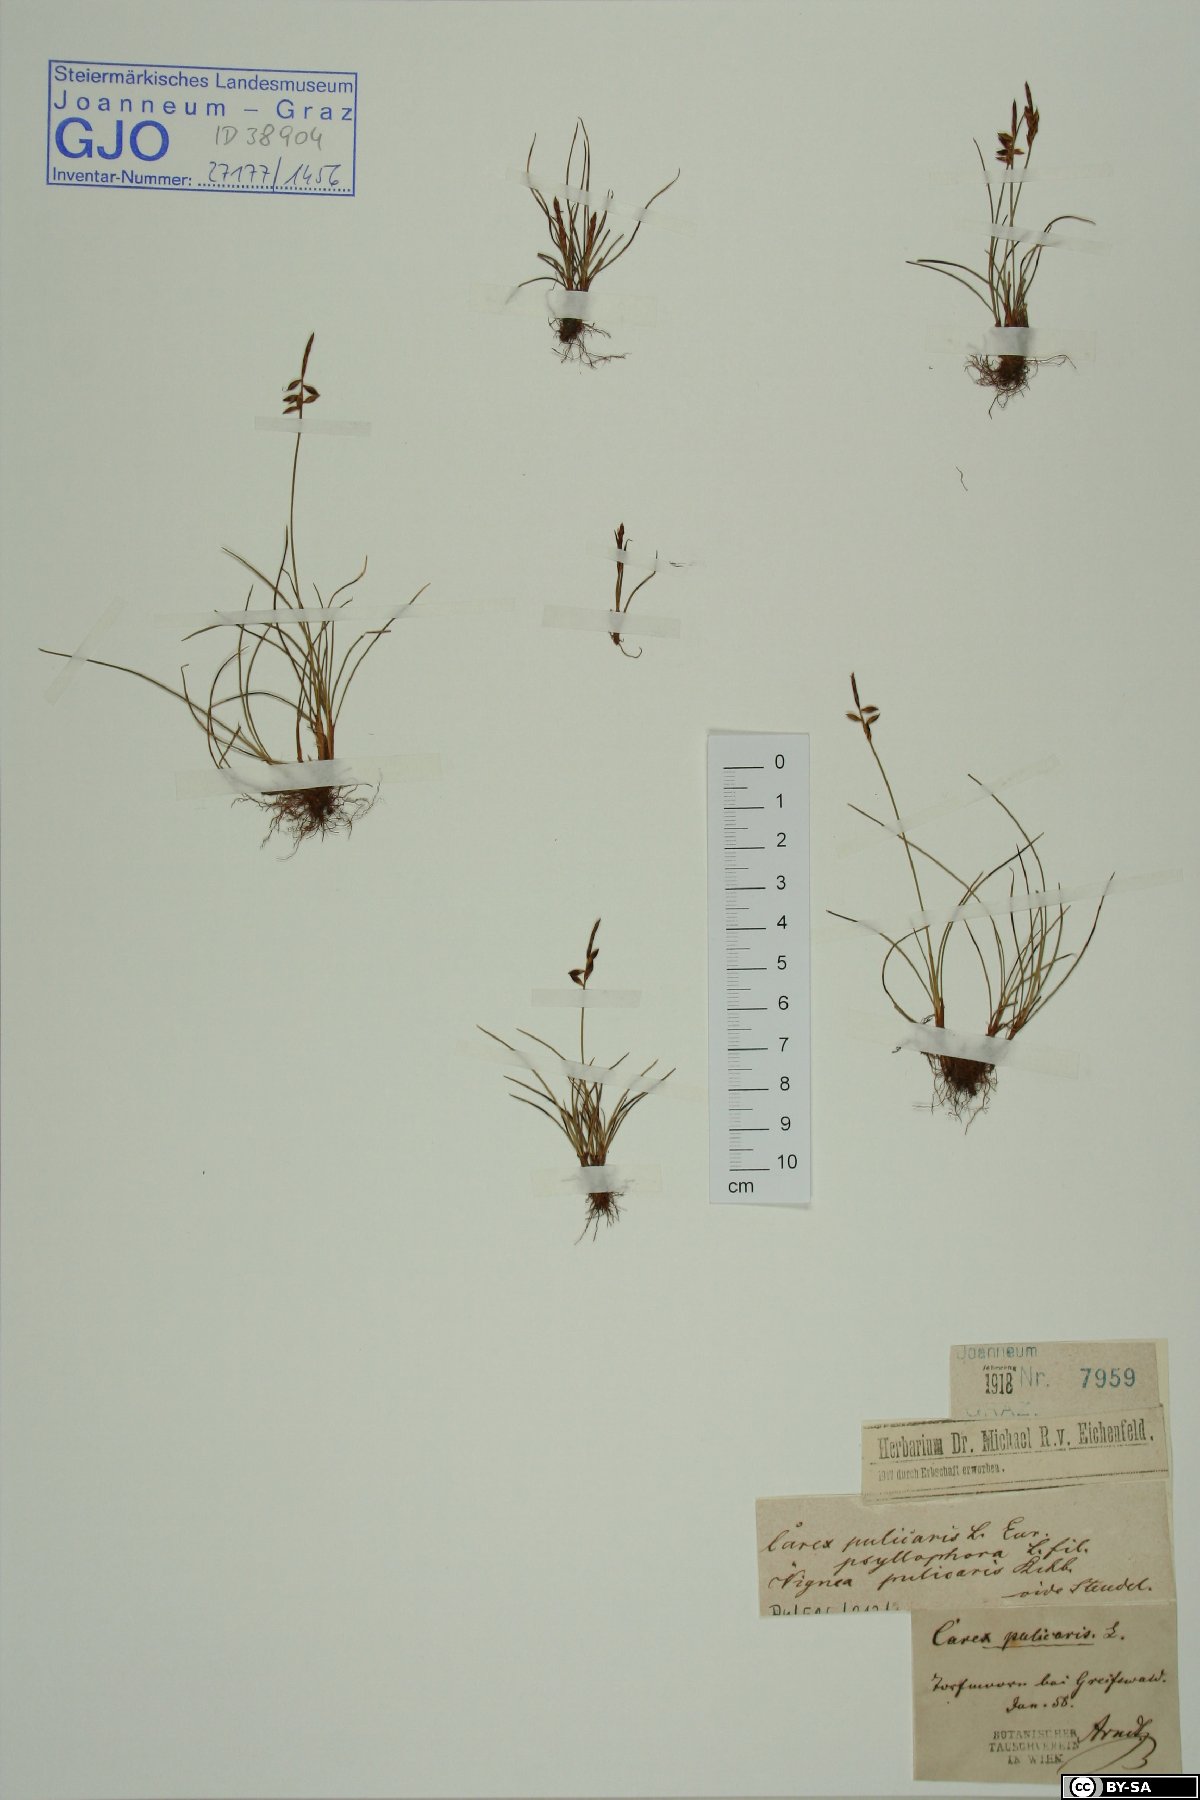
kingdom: Plantae
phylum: Tracheophyta
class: Liliopsida
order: Poales
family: Cyperaceae
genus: Carex
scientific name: Carex pulicaris
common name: Flea sedge
